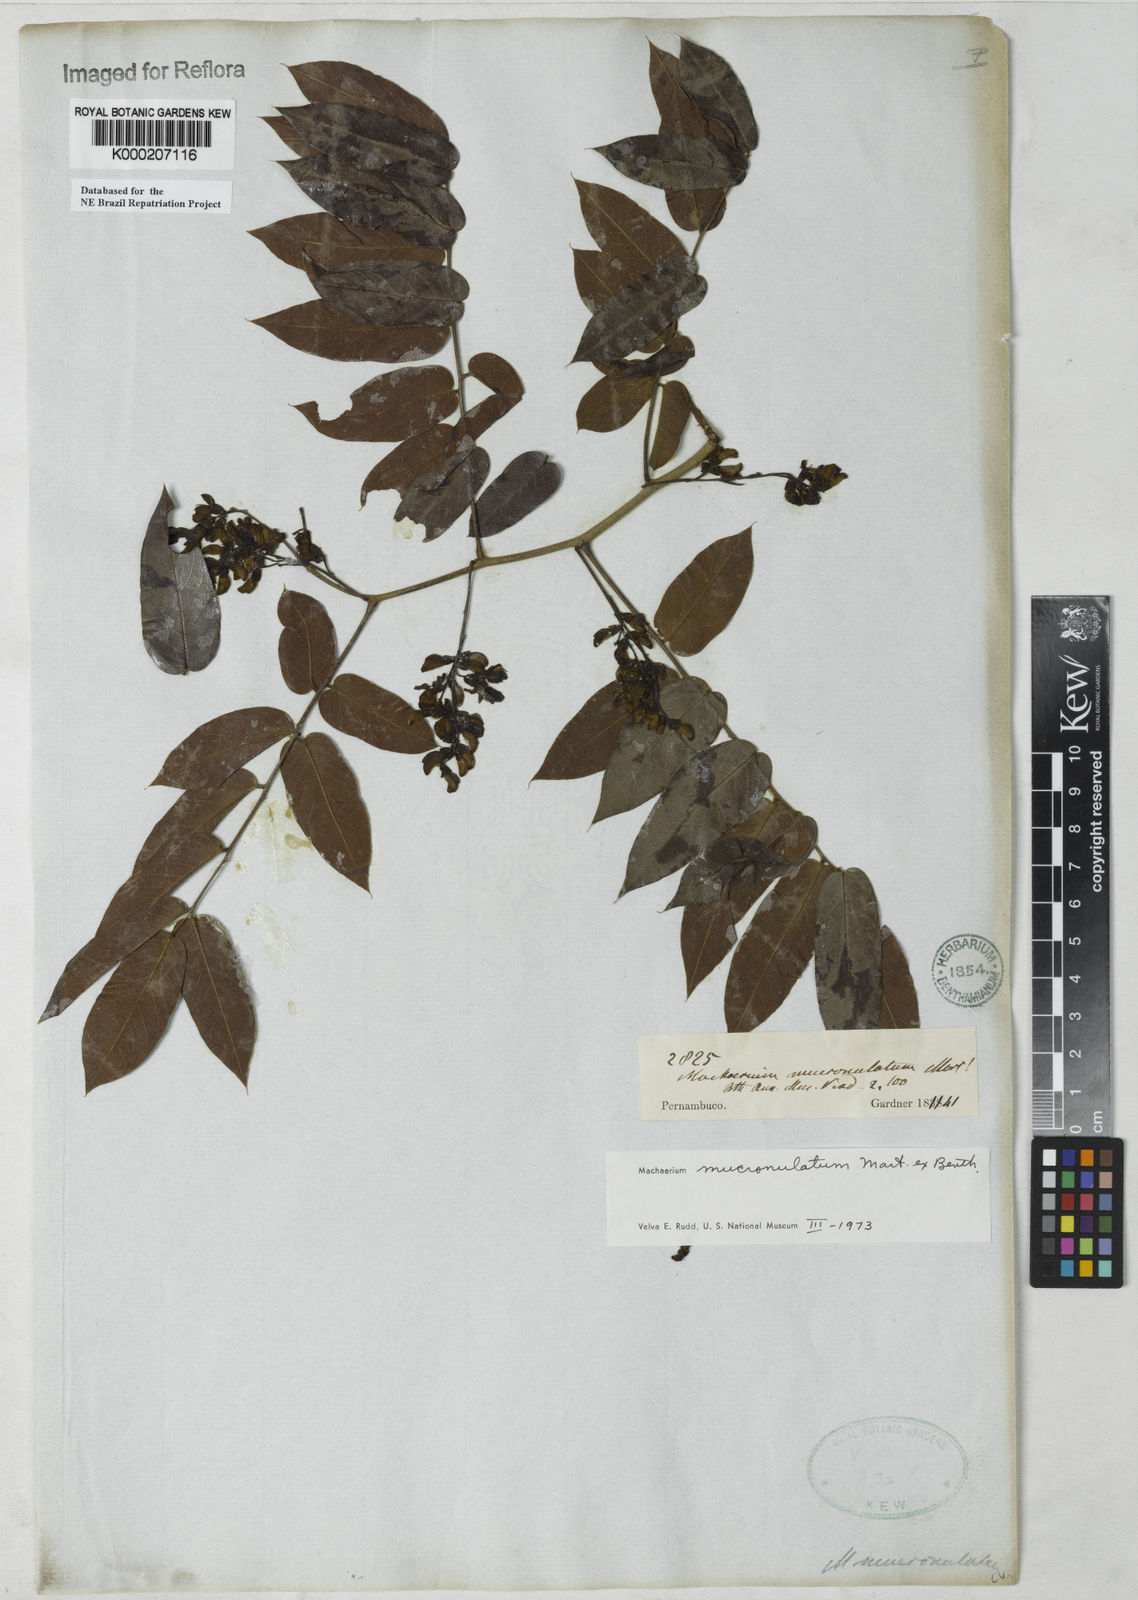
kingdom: Plantae
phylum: Tracheophyta
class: Magnoliopsida
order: Fabales
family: Fabaceae
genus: Machaerium
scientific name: Machaerium acutifolium
